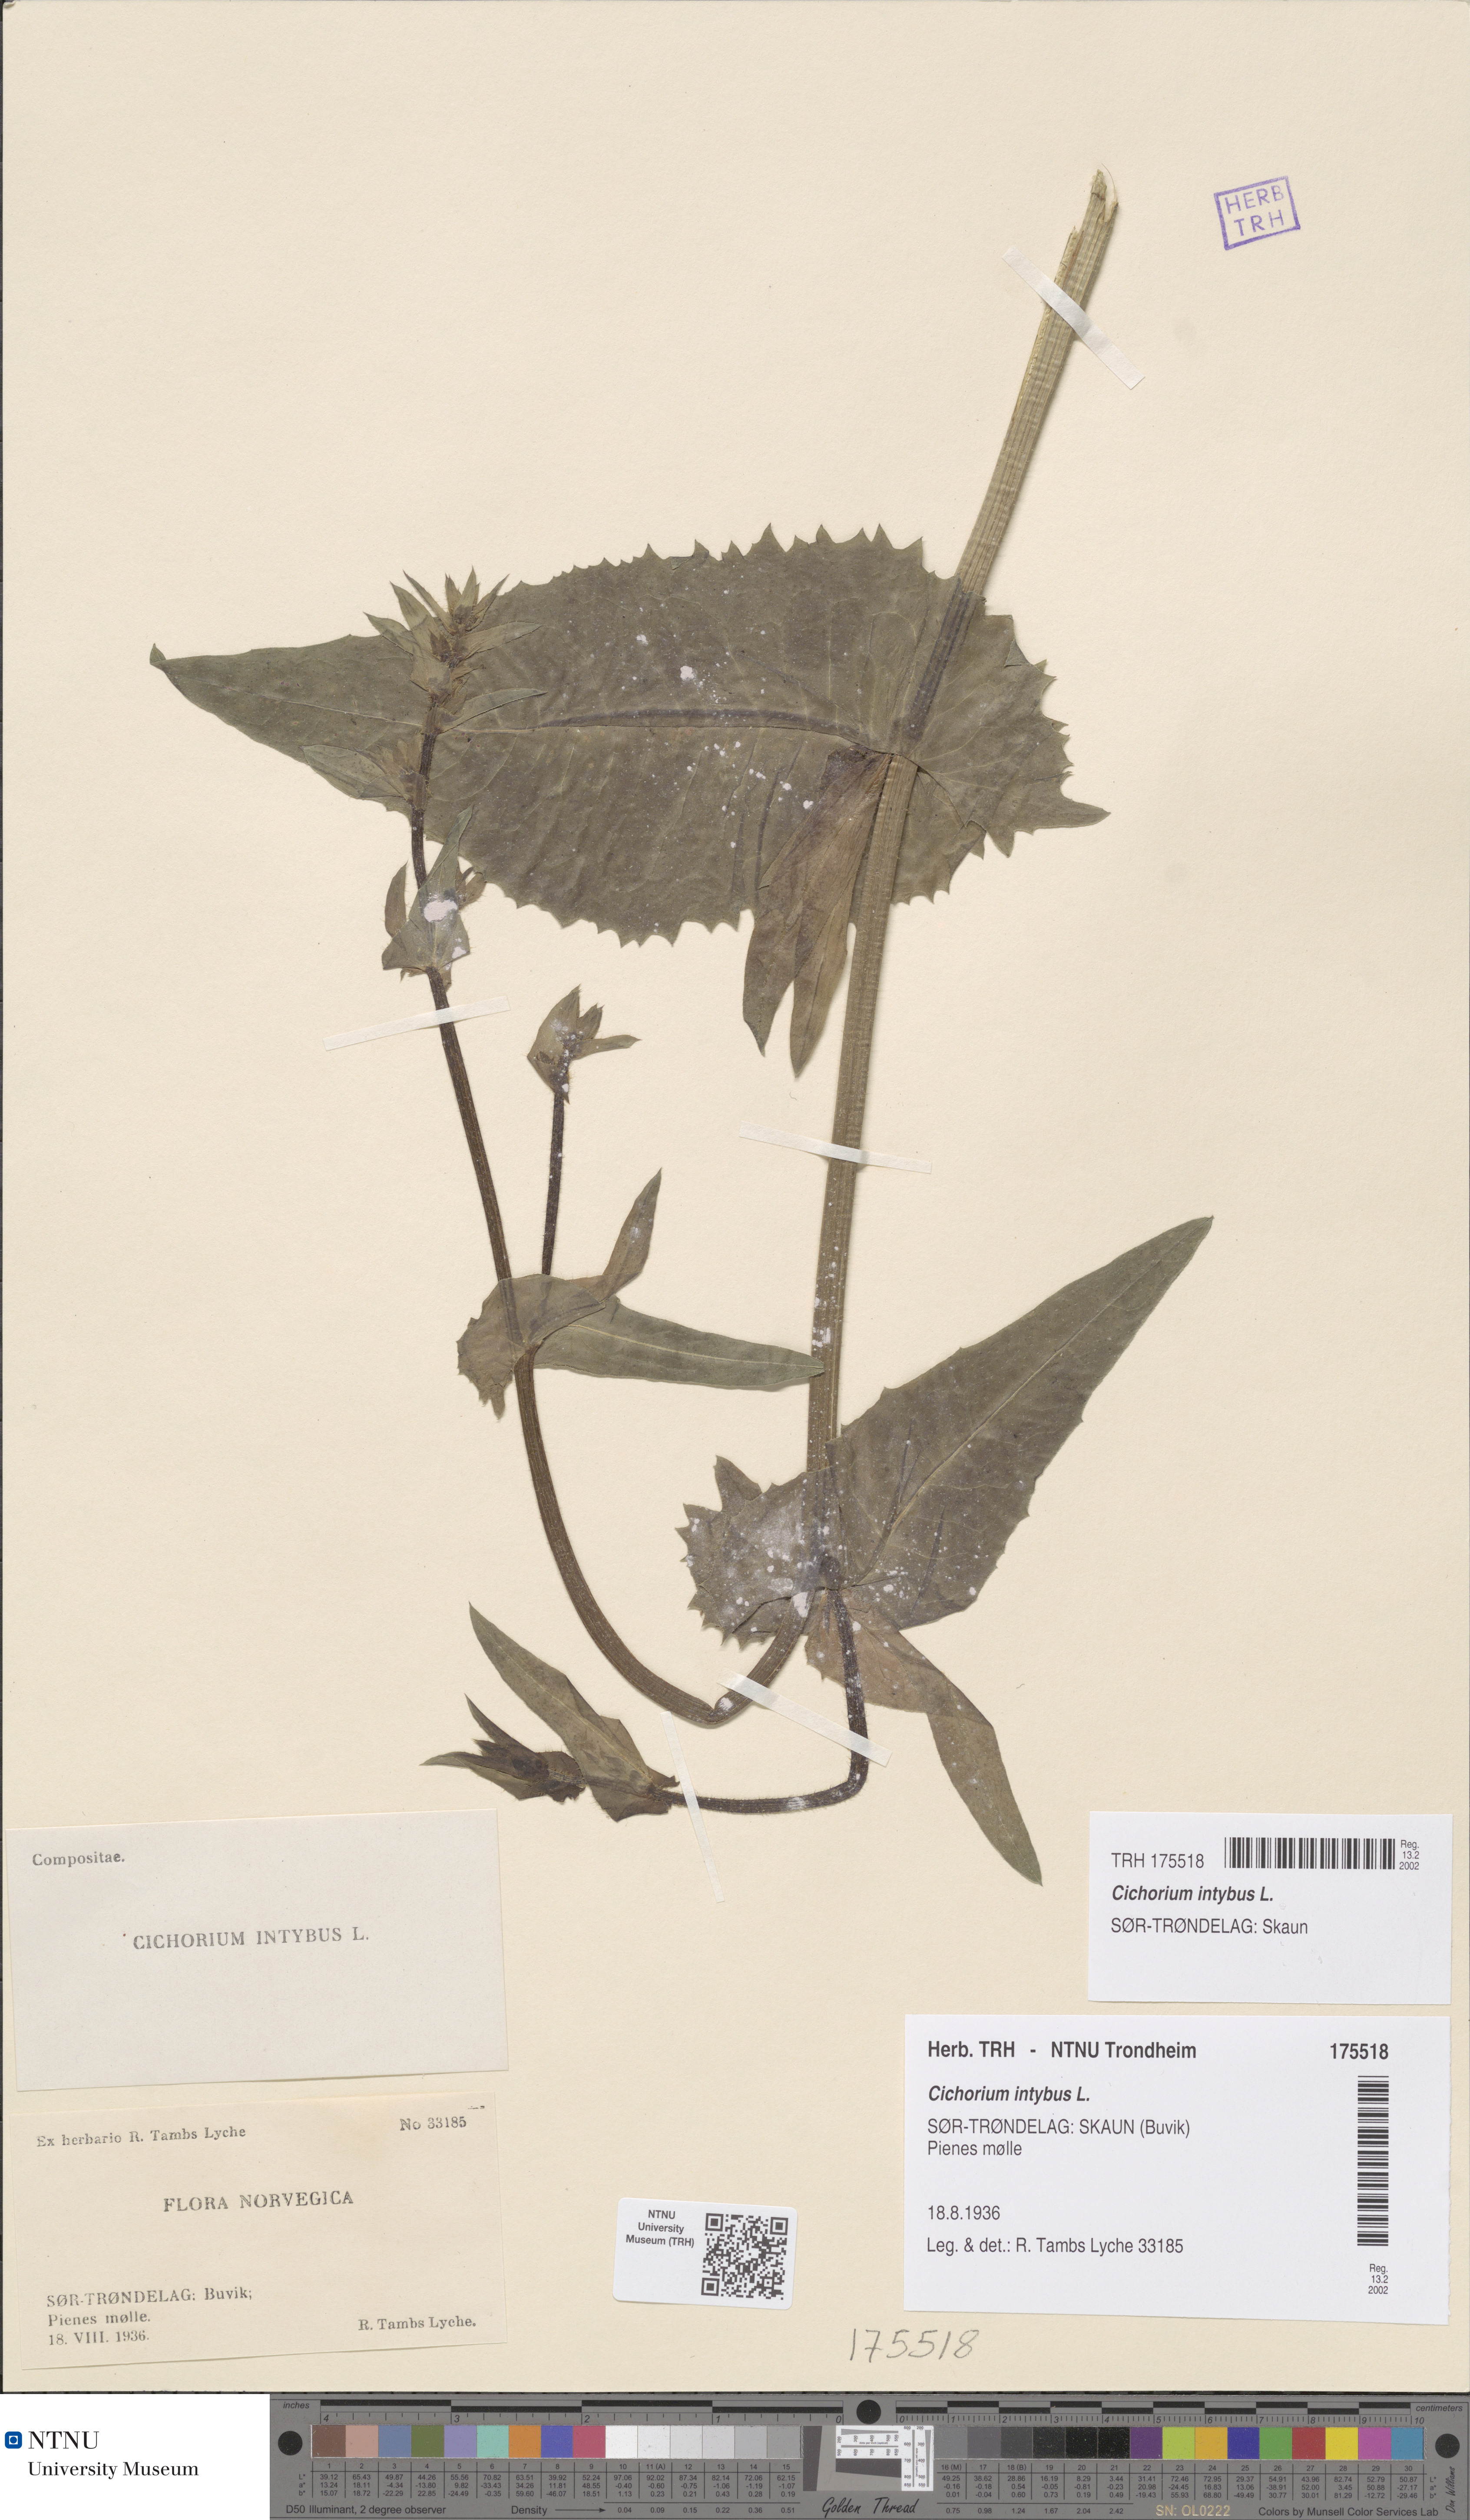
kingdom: Plantae
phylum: Tracheophyta
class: Magnoliopsida
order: Asterales
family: Asteraceae
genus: Cichorium
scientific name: Cichorium intybus
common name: Chicory
